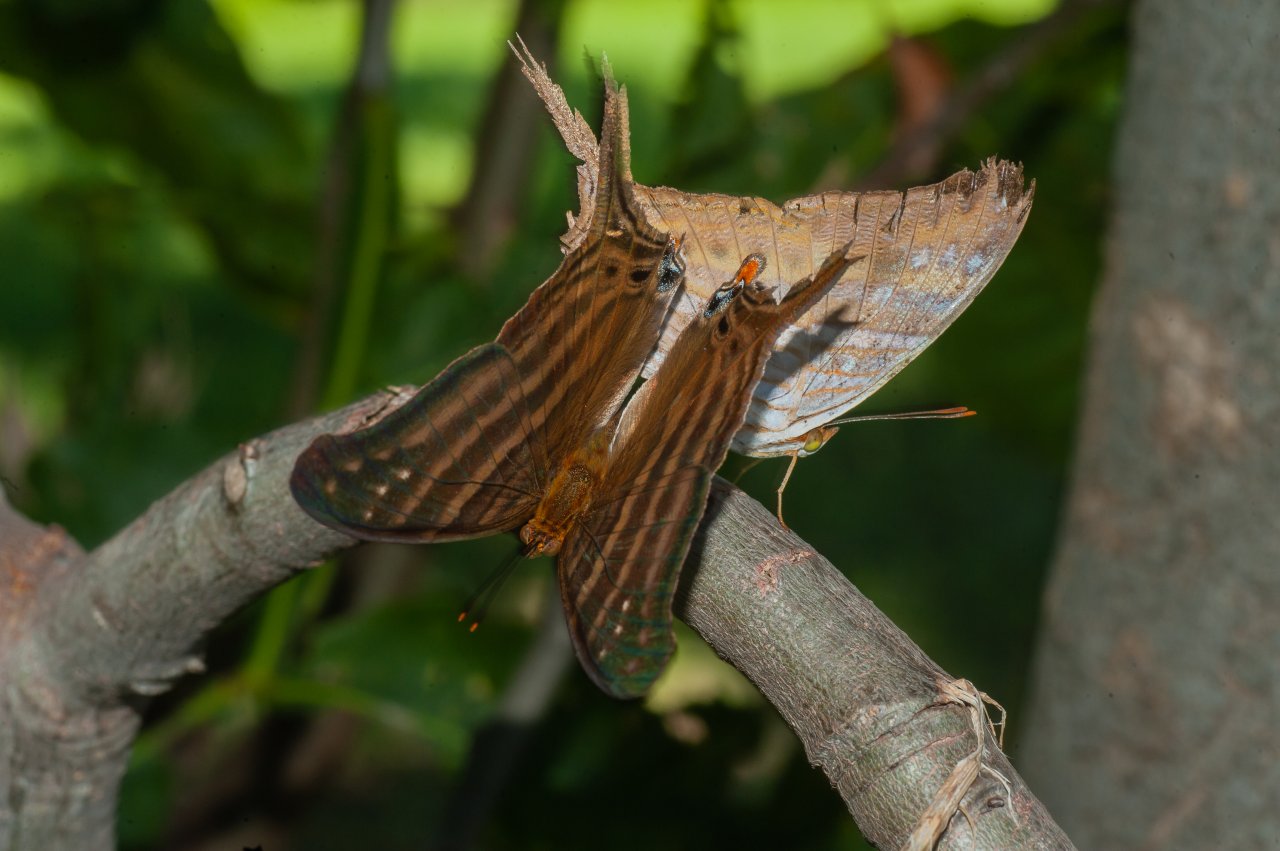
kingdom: Animalia
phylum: Arthropoda
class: Insecta
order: Lepidoptera
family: Nymphalidae
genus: Marpesia
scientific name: Marpesia chiron
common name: Many-banded Daggerwing
